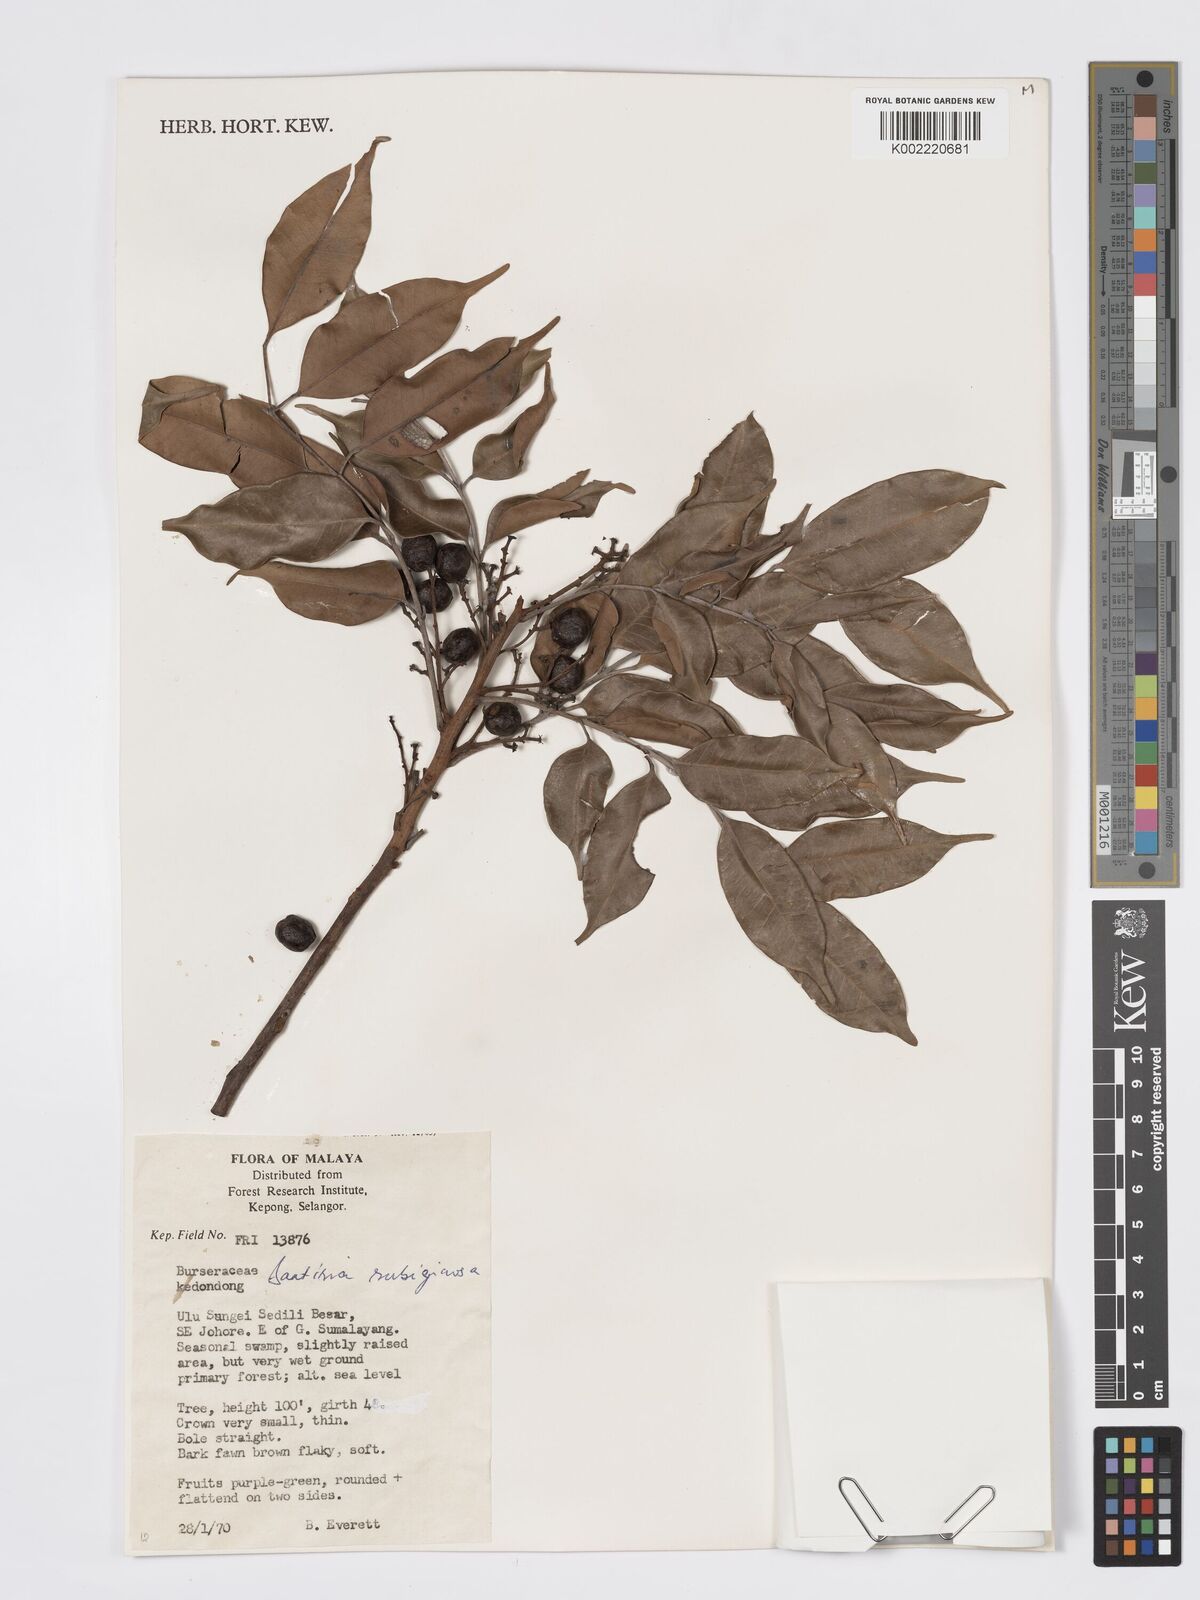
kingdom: Plantae
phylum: Tracheophyta
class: Magnoliopsida
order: Sapindales
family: Burseraceae
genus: Santiria
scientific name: Santiria rubiginosa
